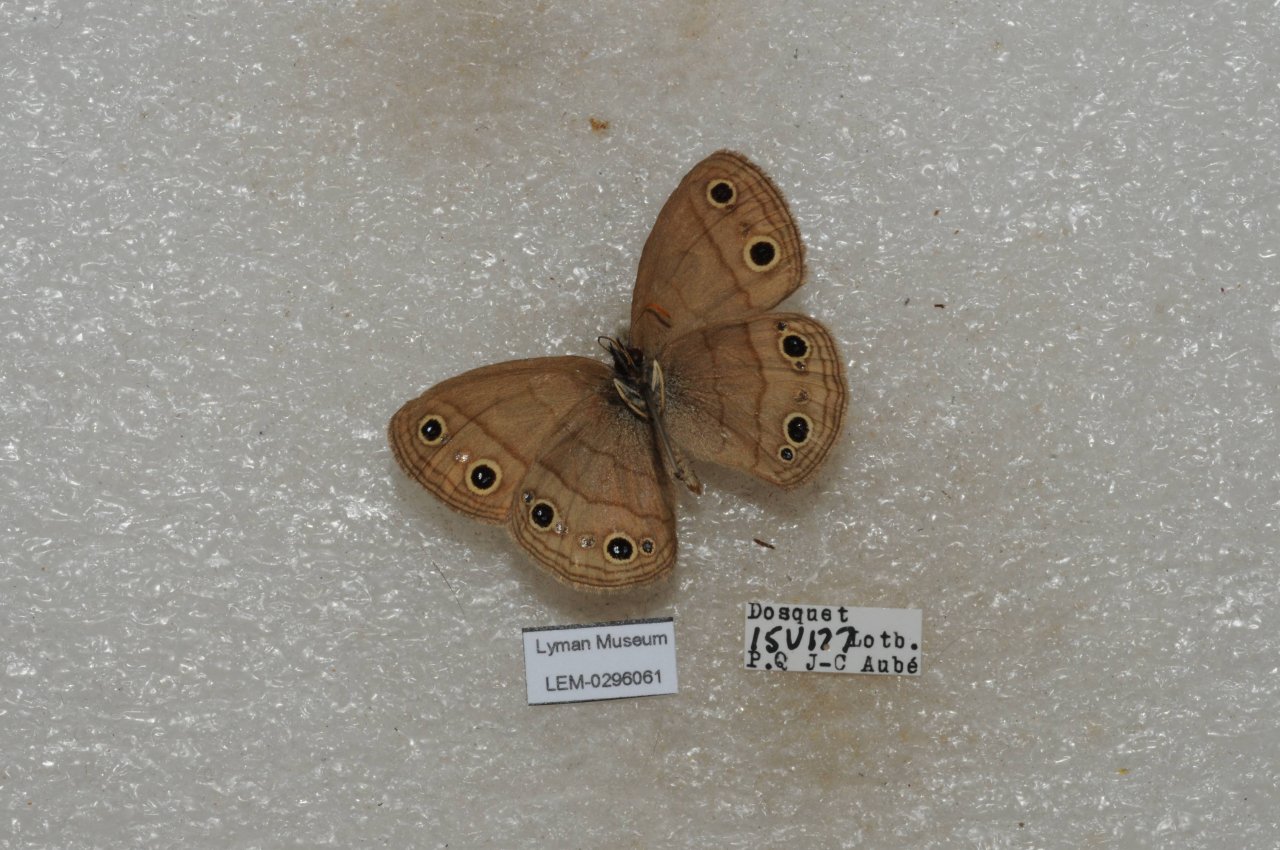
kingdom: Animalia
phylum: Arthropoda
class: Insecta
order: Lepidoptera
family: Nymphalidae
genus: Coenonympha
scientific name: Coenonympha tullia
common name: Large Heath
